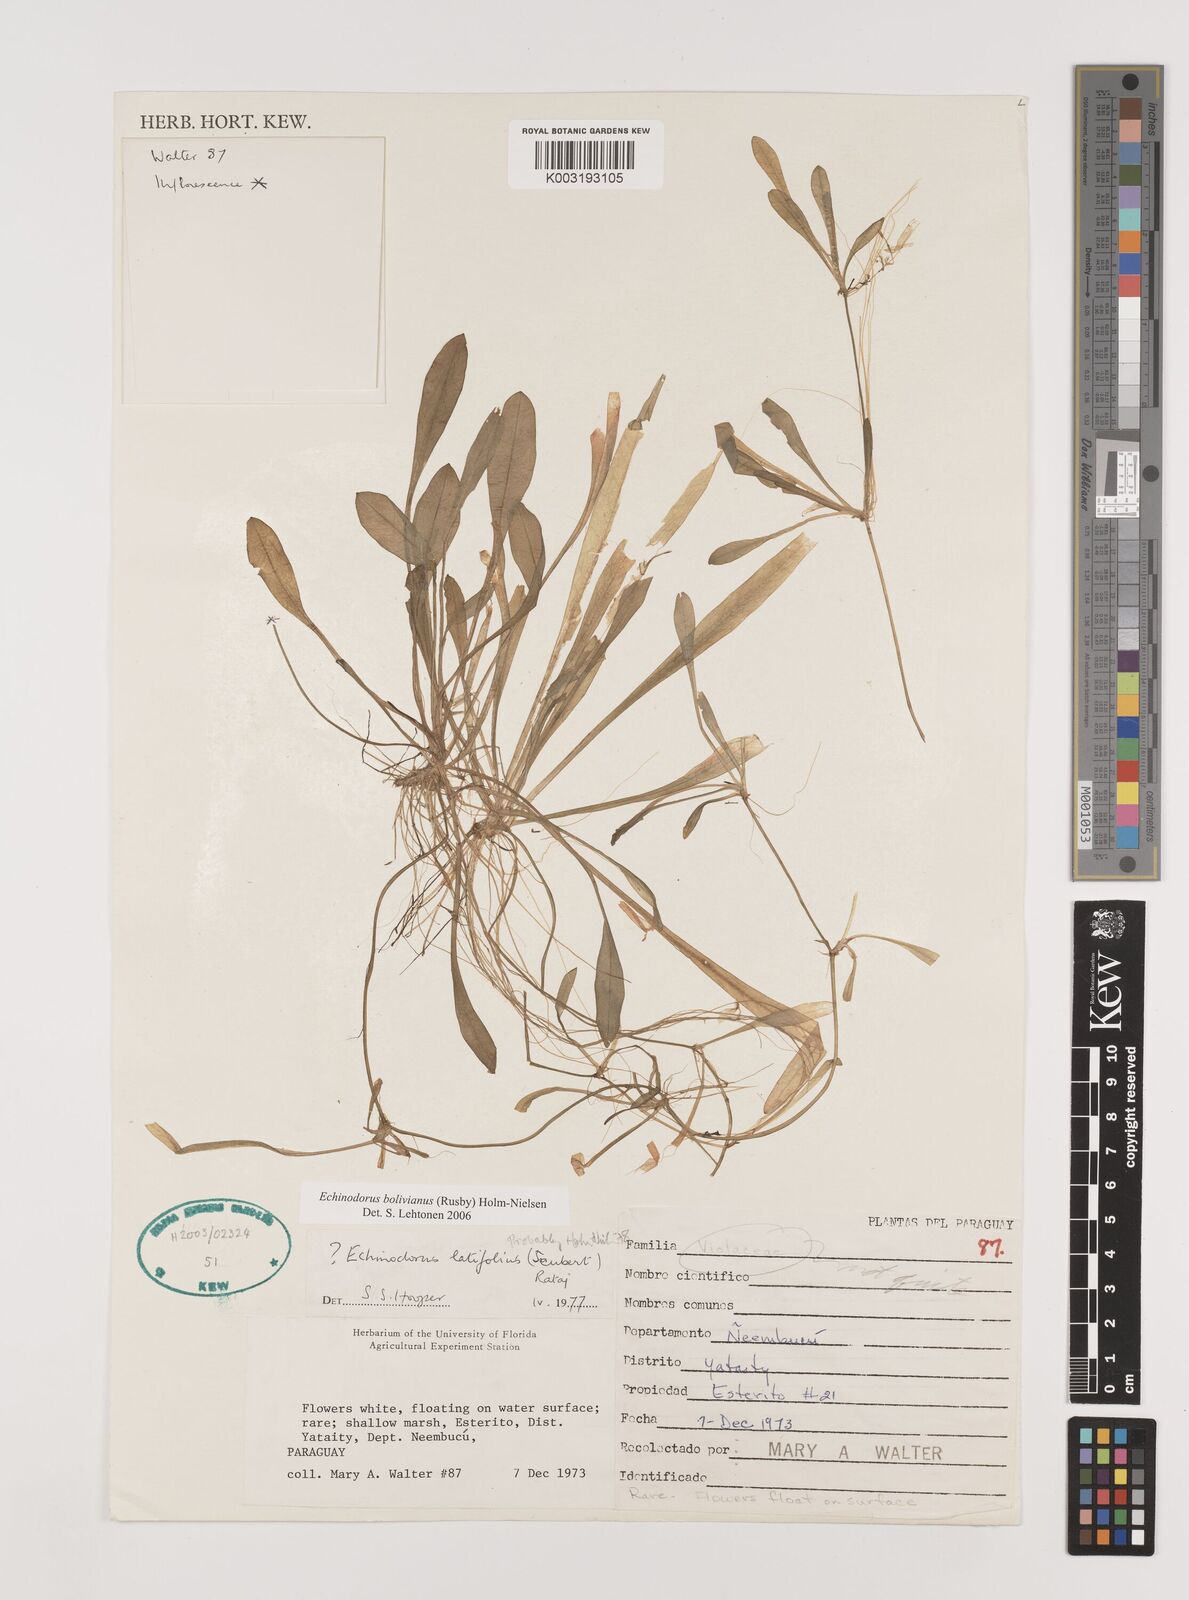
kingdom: Plantae
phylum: Tracheophyta
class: Liliopsida
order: Alismatales
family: Alismataceae
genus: Helanthium
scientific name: Helanthium bolivianum
